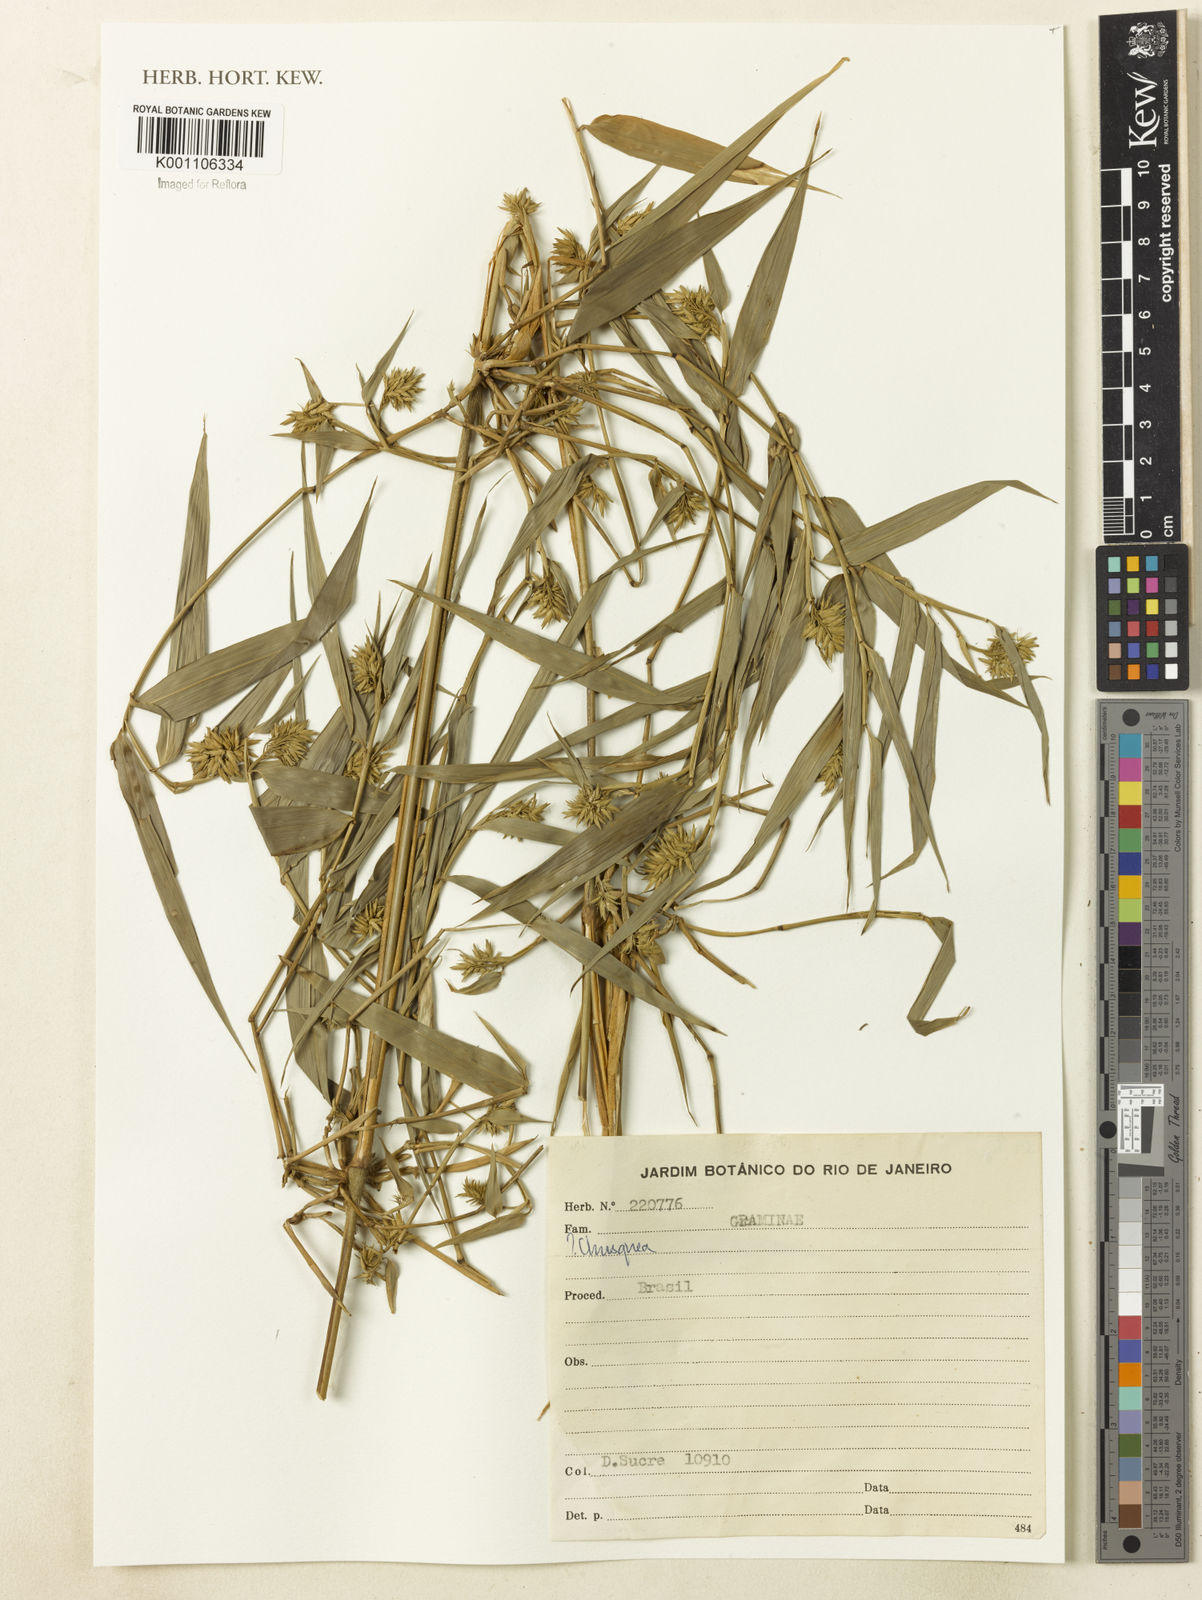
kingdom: Plantae
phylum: Tracheophyta
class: Liliopsida
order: Poales
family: Poaceae
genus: Chusquea
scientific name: Chusquea
